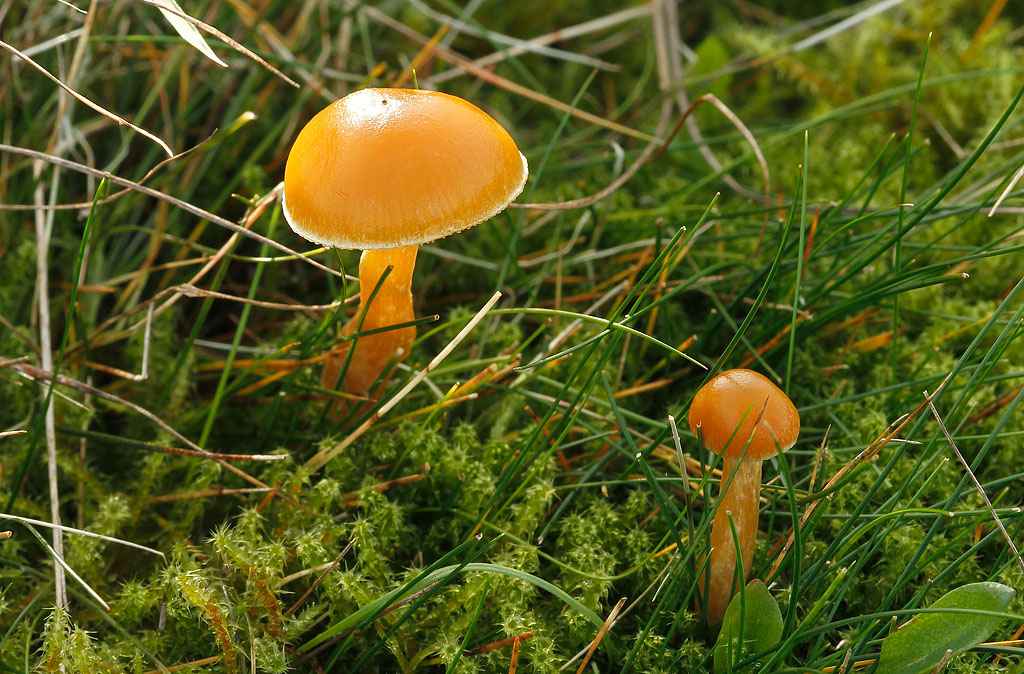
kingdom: Fungi
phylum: Basidiomycota
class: Agaricomycetes
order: Agaricales
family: Hymenogastraceae
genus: Galerina
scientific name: Galerina pumila
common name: honninggul hjelmhat
